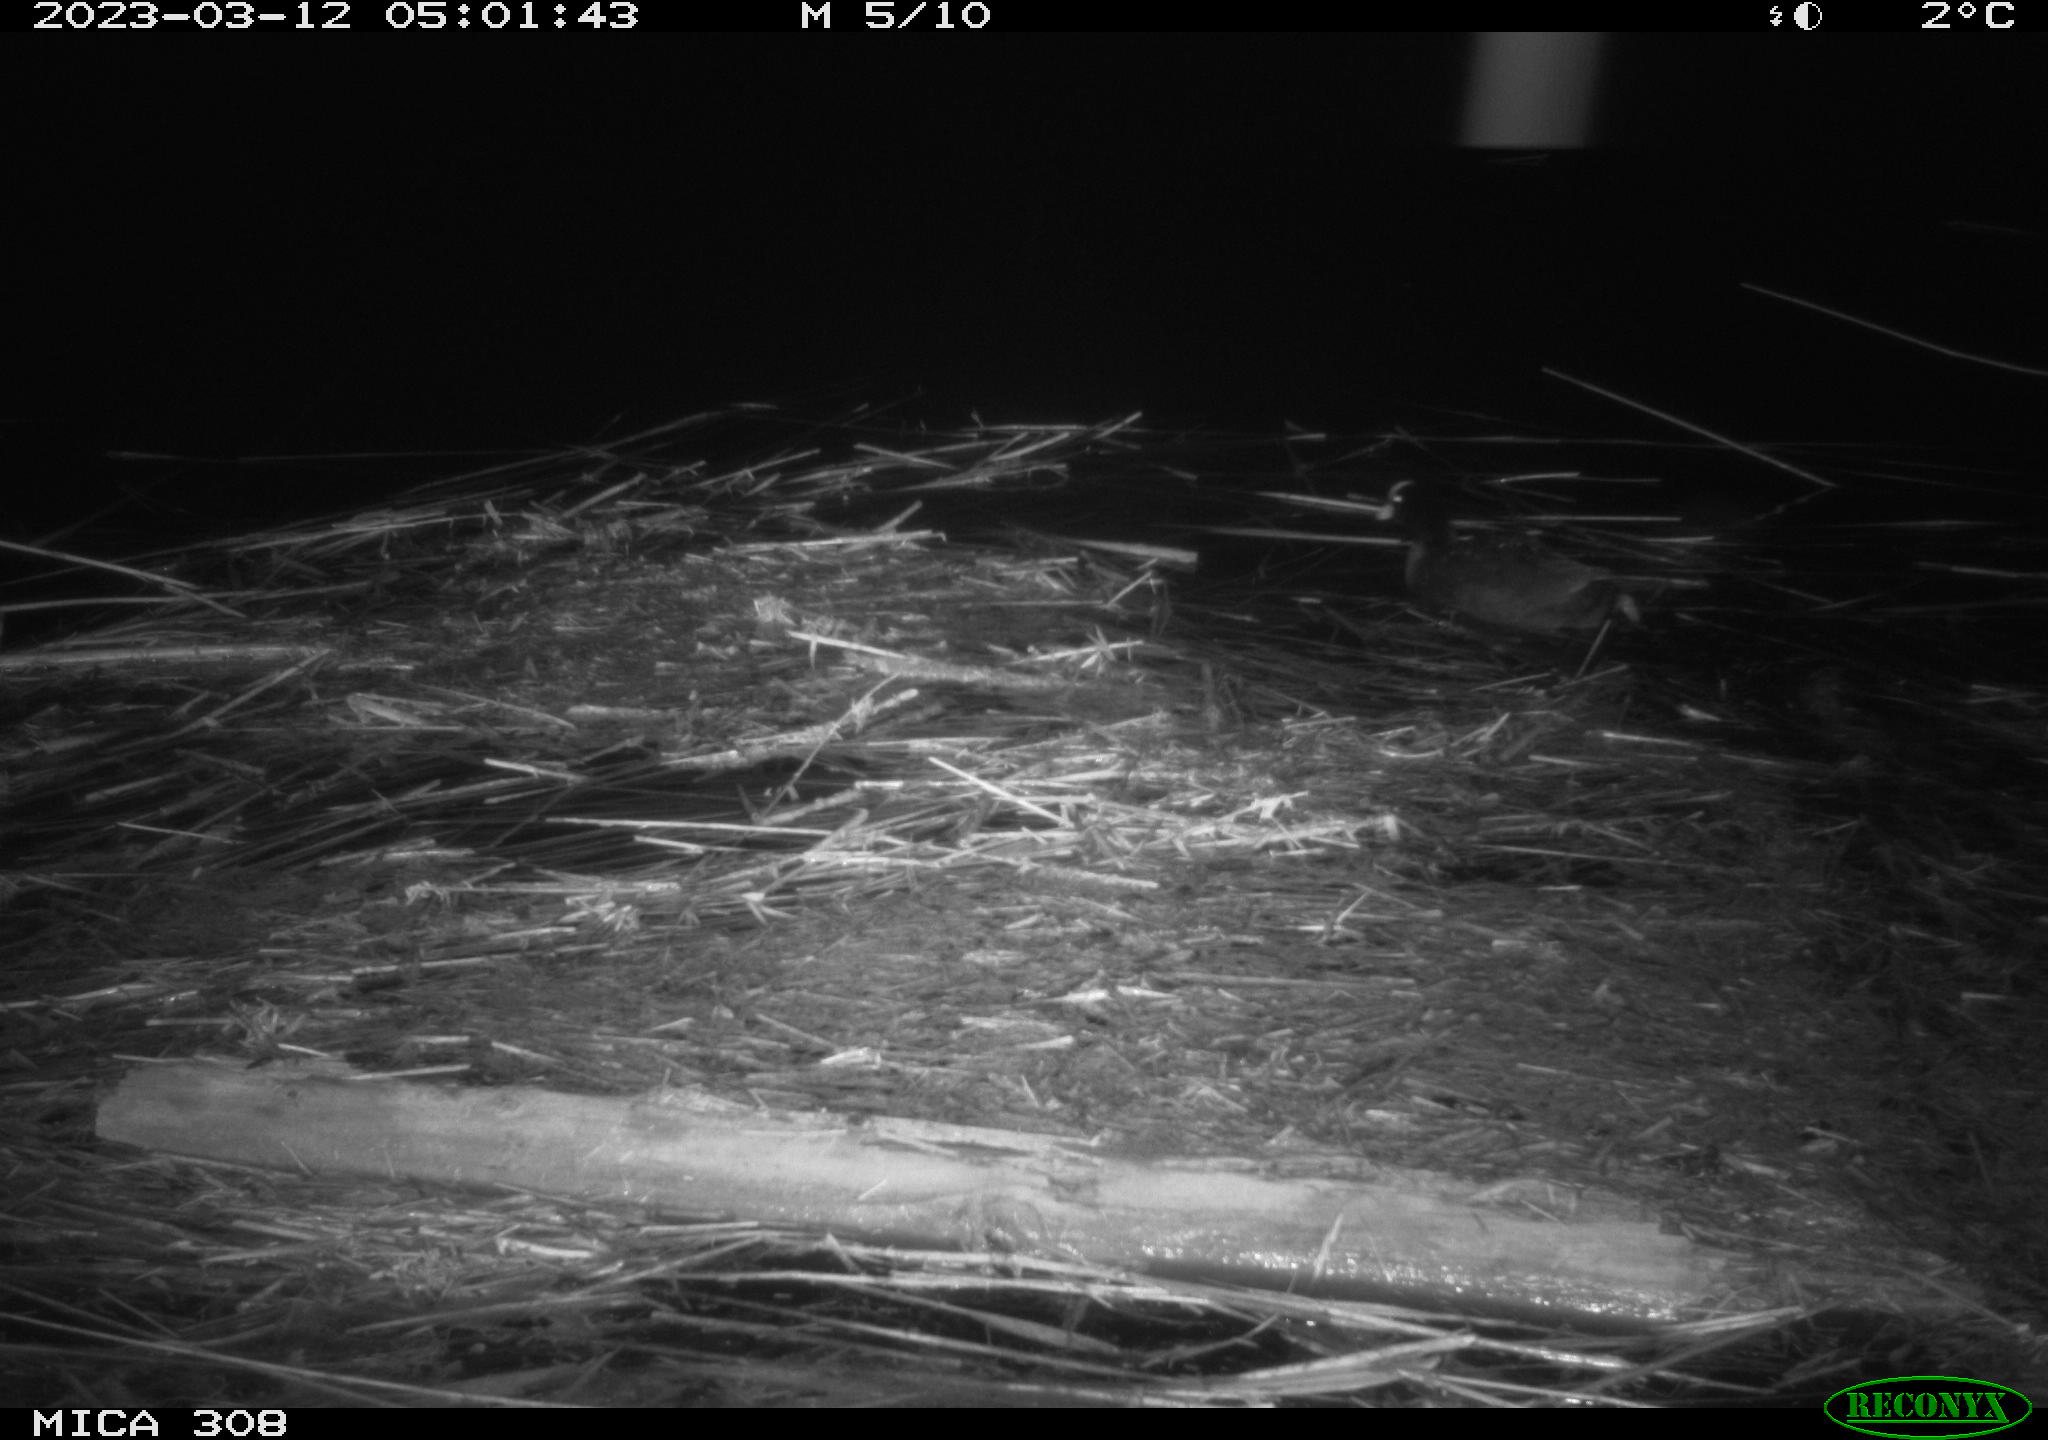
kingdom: Animalia
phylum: Chordata
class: Aves
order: Anseriformes
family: Anatidae
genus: Anas
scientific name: Anas
